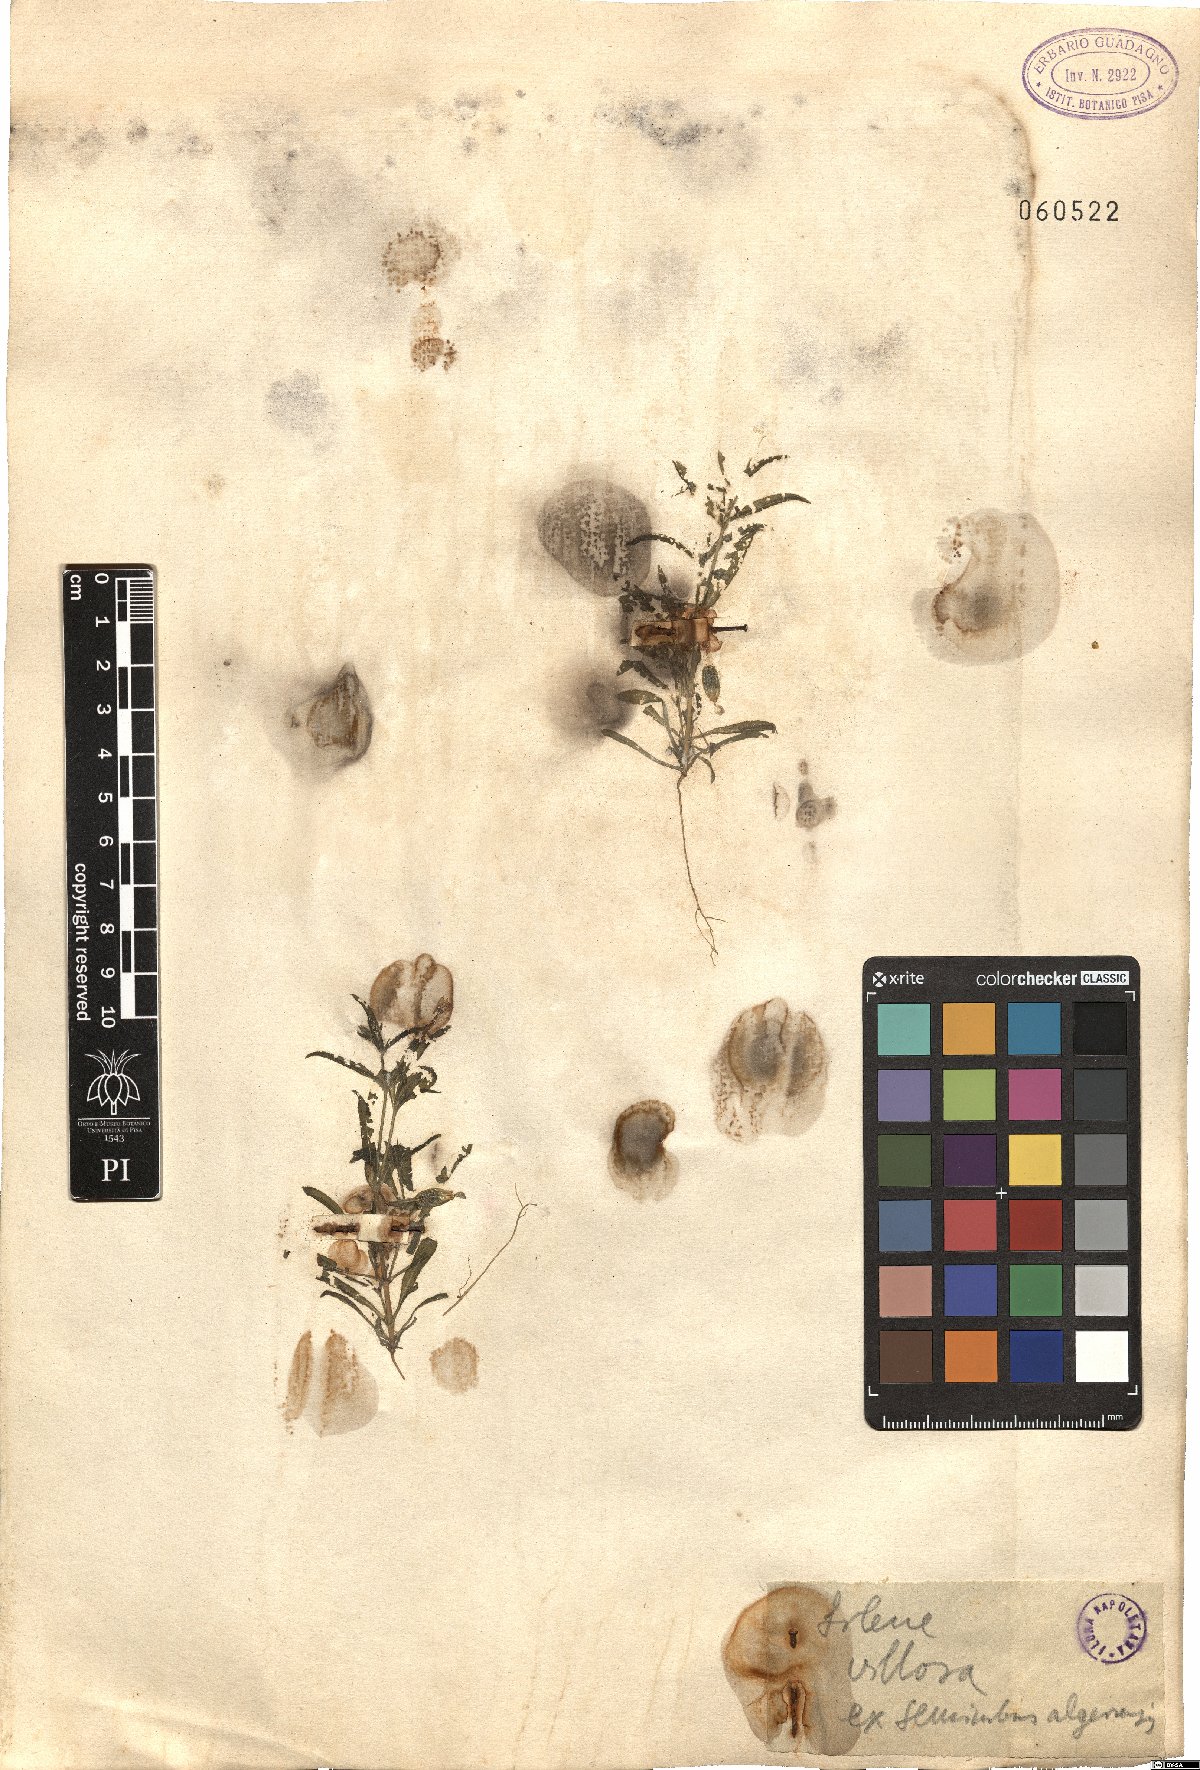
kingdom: Plantae
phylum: Tracheophyta
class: Magnoliopsida
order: Caryophyllales
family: Caryophyllaceae
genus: Silene
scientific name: Silene villosa
